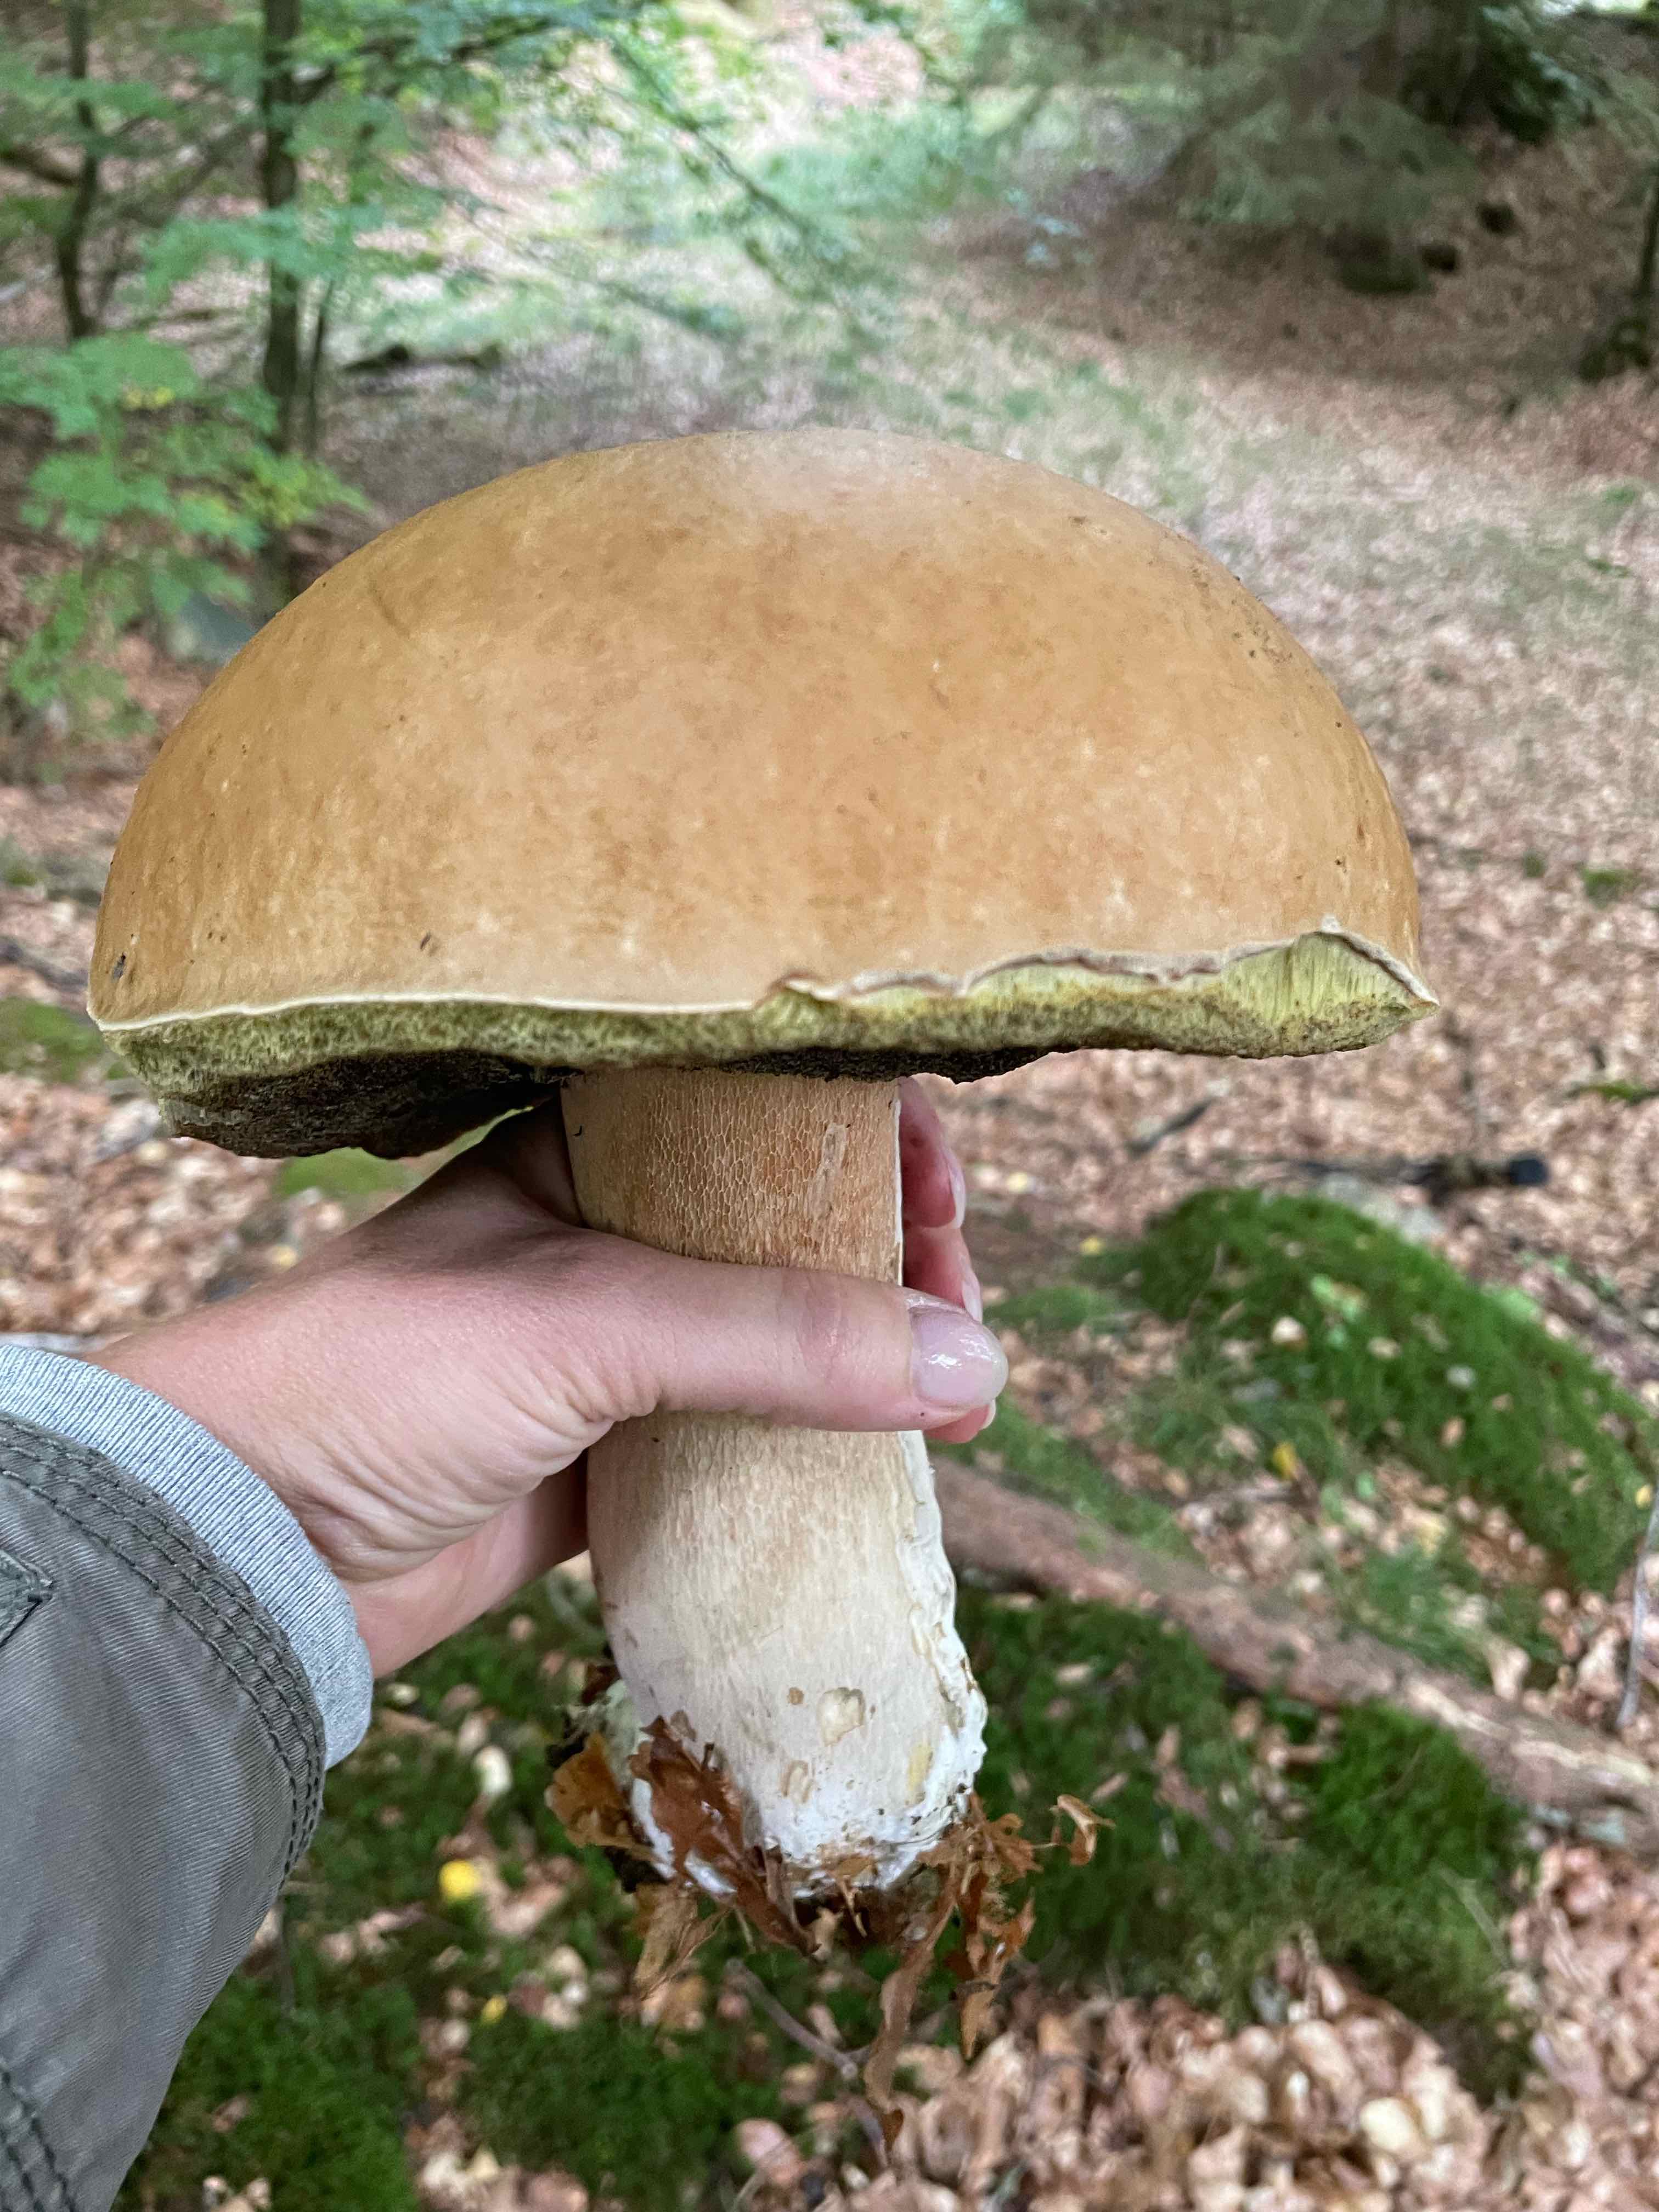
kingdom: Fungi
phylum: Basidiomycota
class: Agaricomycetes
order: Boletales
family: Boletaceae
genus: Boletus
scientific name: Boletus edulis
